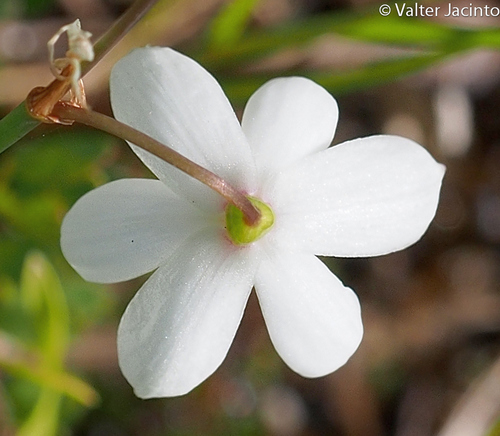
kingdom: Plantae
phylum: Tracheophyta
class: Liliopsida
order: Asparagales
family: Amaryllidaceae
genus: Acis
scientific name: Acis trichophylla
